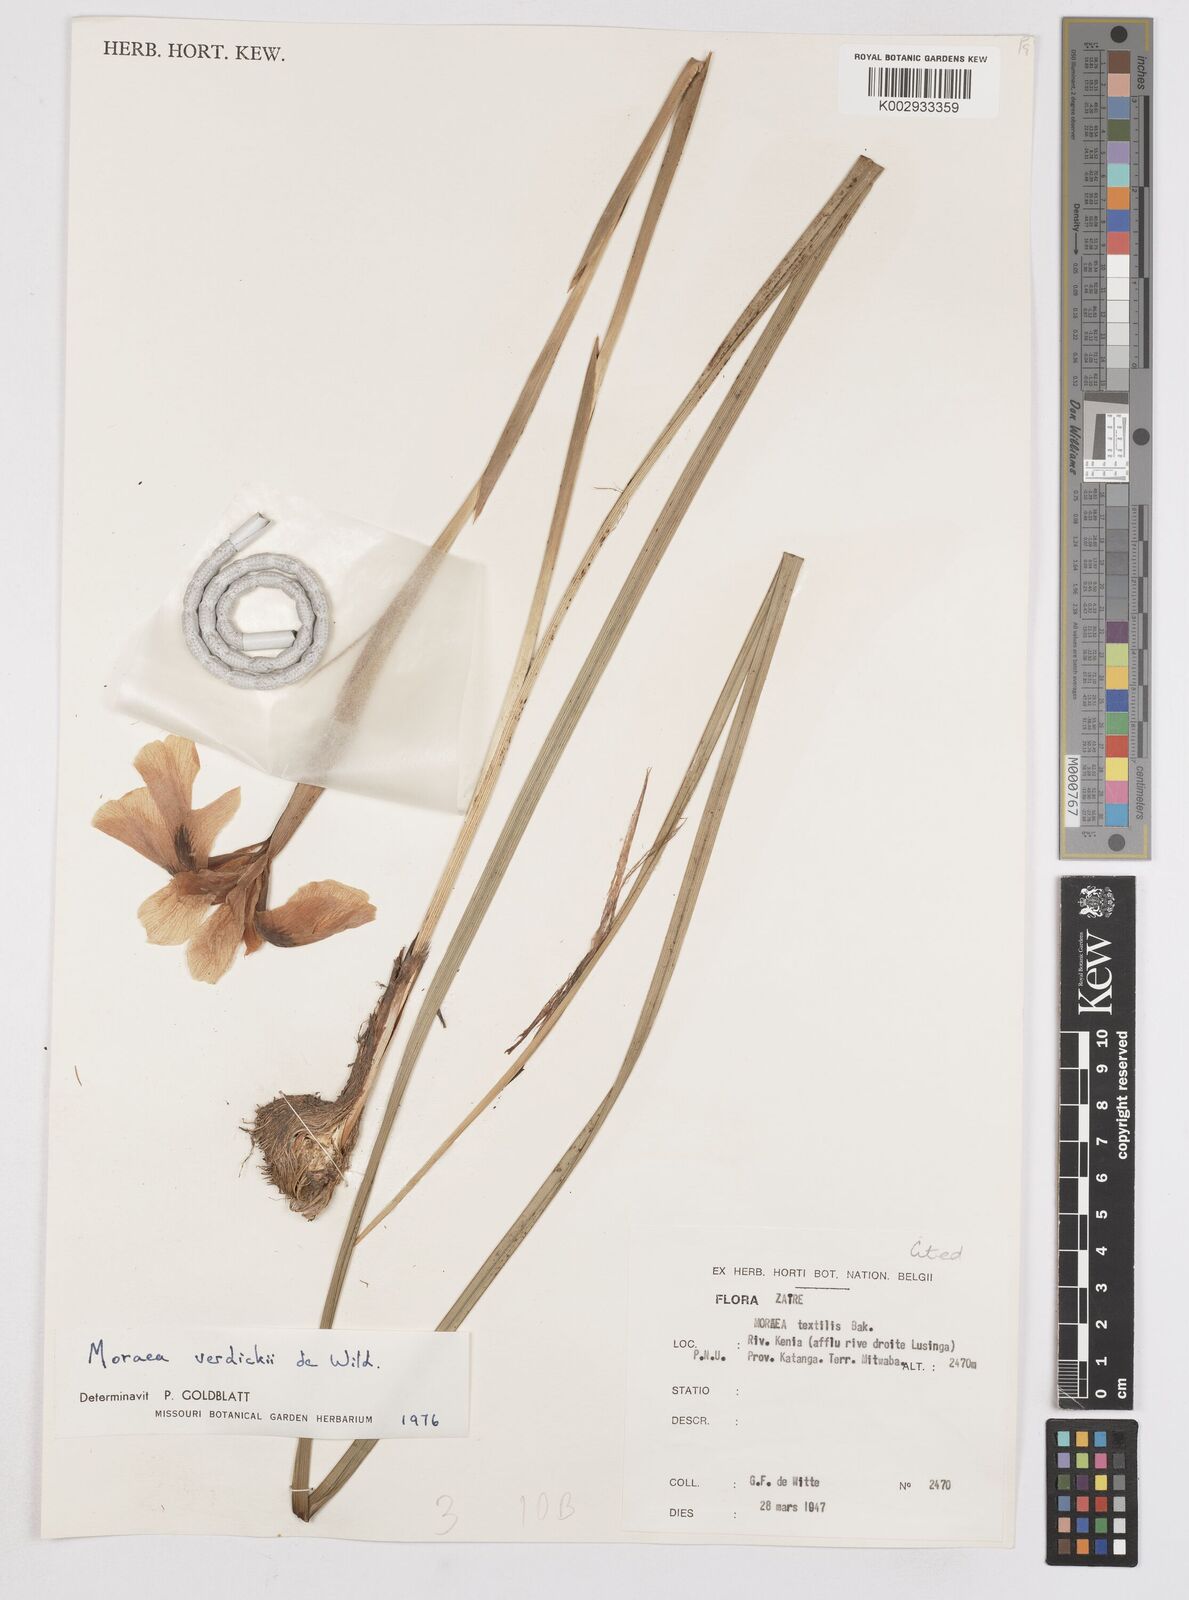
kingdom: Plantae
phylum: Tracheophyta
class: Liliopsida
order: Asparagales
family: Iridaceae
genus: Moraea
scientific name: Moraea verdickii
